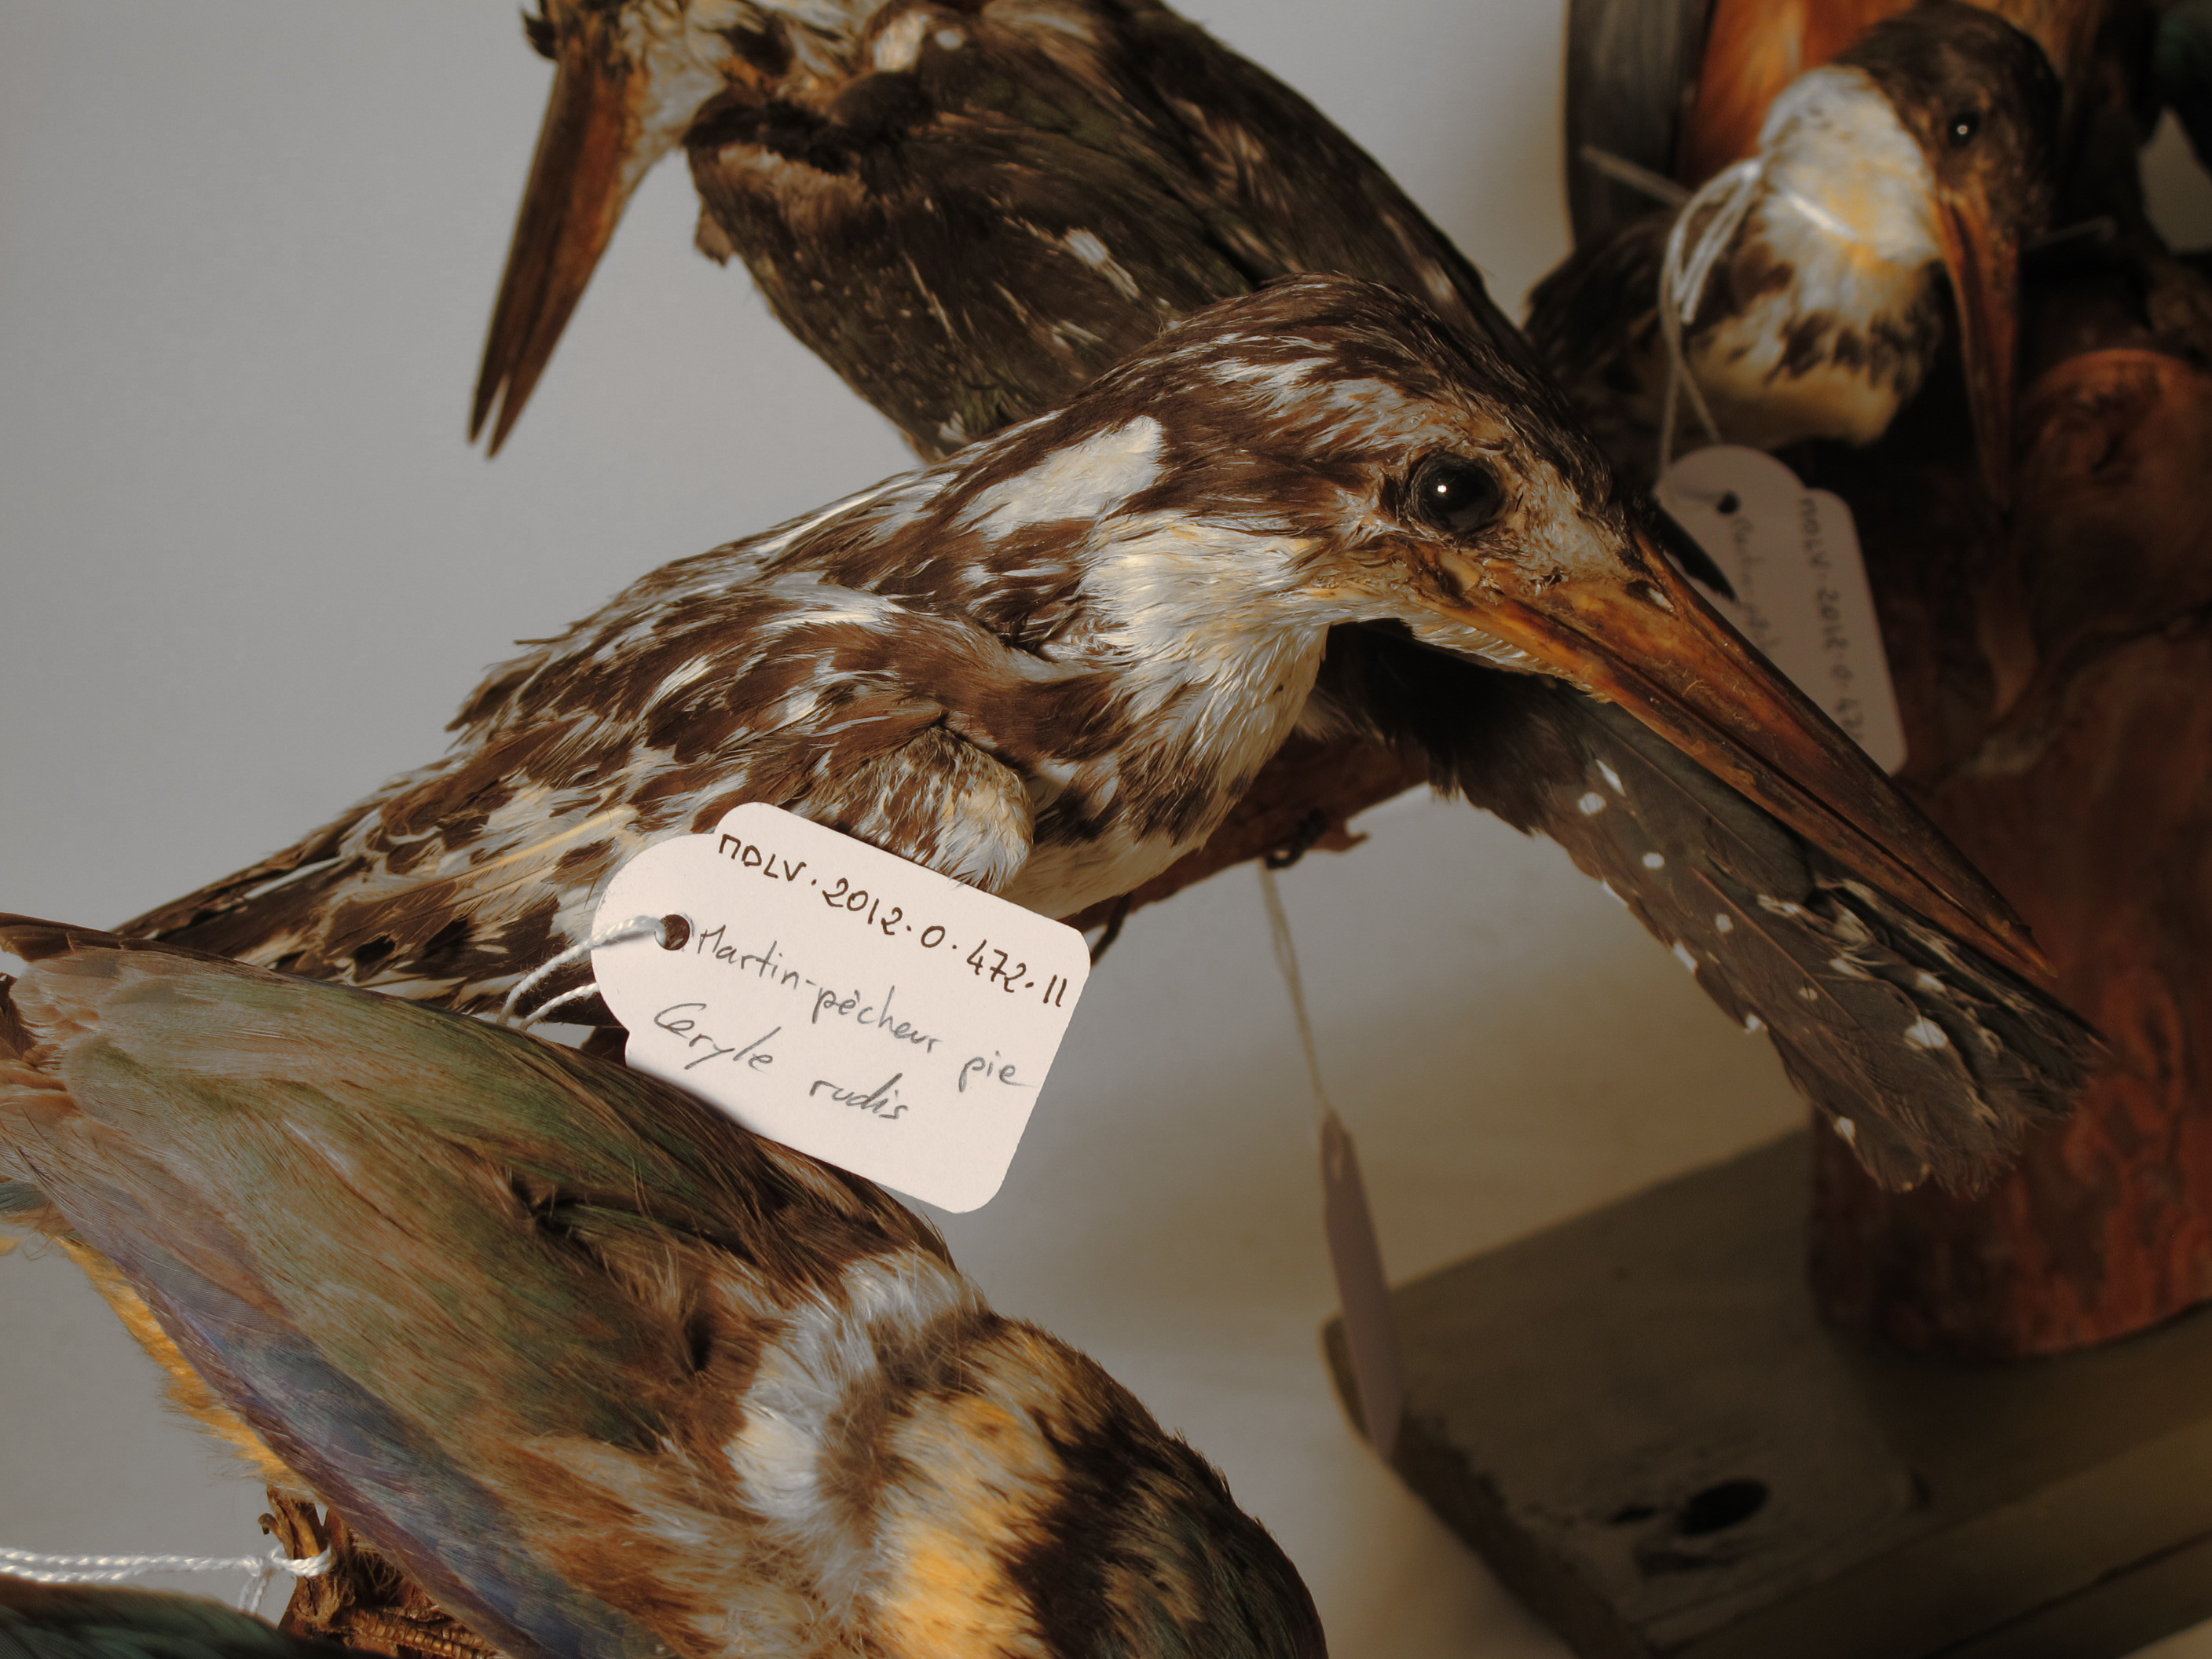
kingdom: Animalia
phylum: Chordata
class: Aves
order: Coraciiformes
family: Alcedinidae
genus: Ceryle
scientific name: Ceryle rudis
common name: Pied Kingfisher
